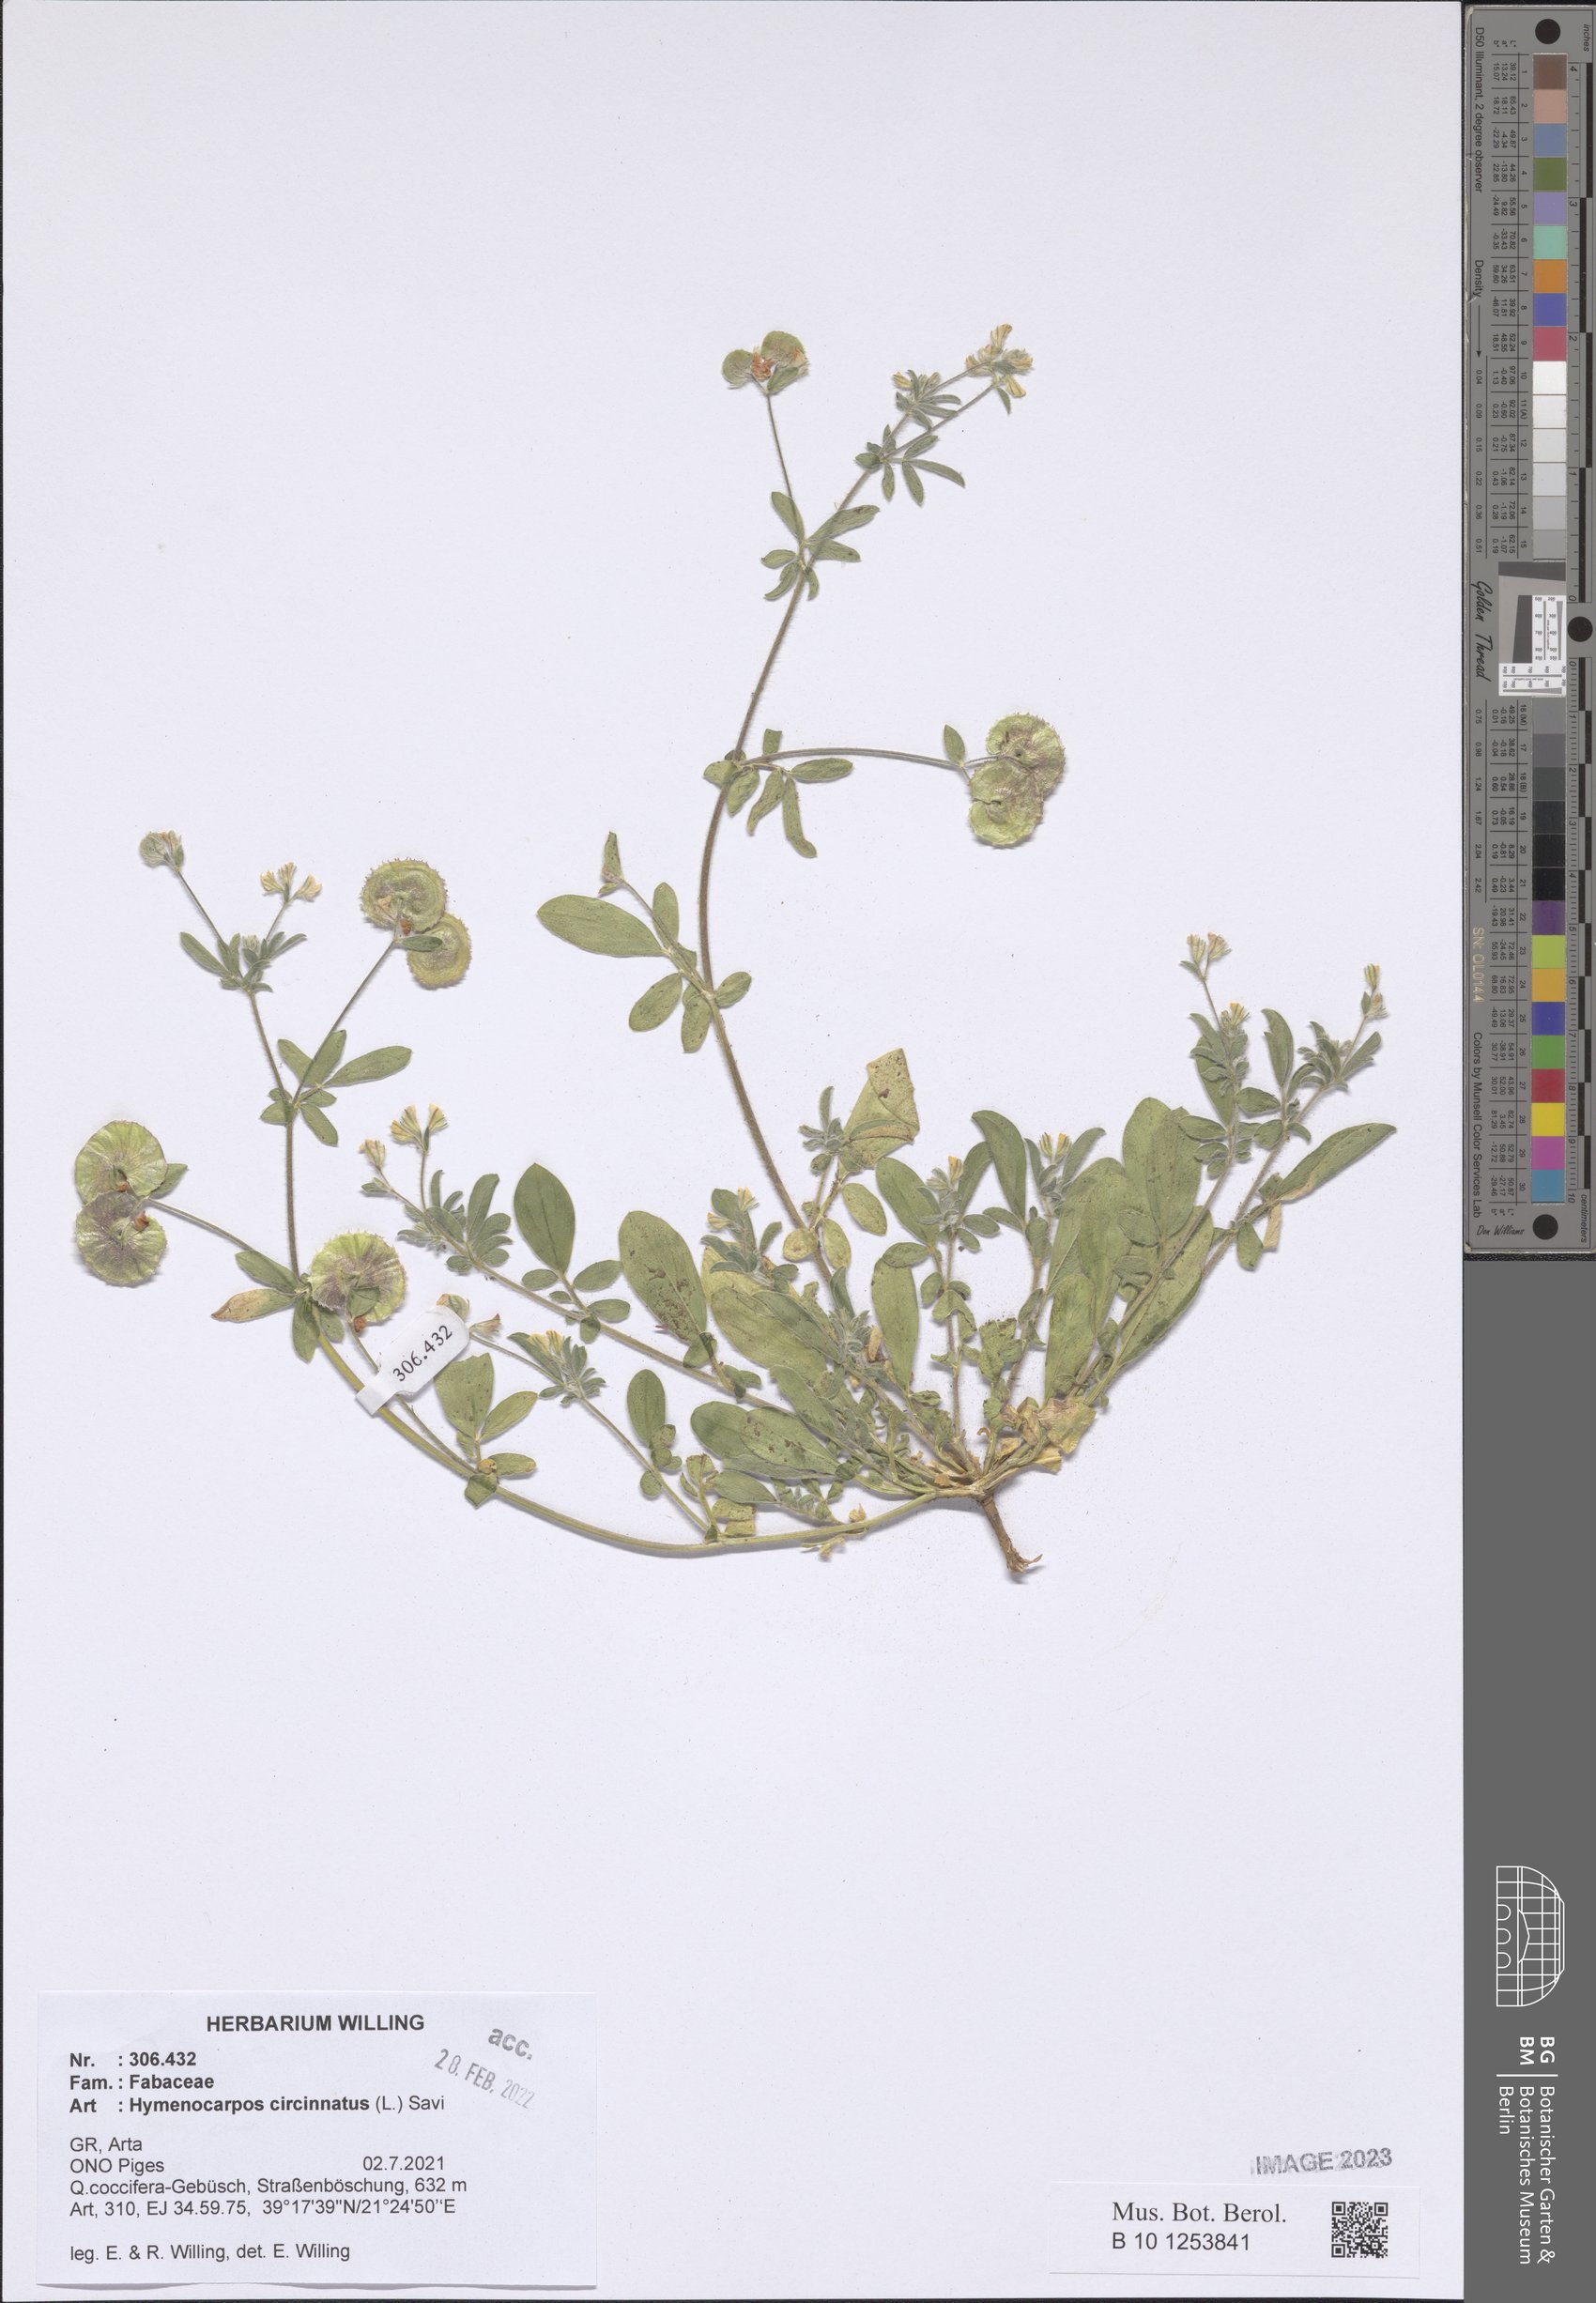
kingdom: Plantae
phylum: Tracheophyta
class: Magnoliopsida
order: Fabales
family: Fabaceae
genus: Anthyllis
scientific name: Anthyllis circinnata
